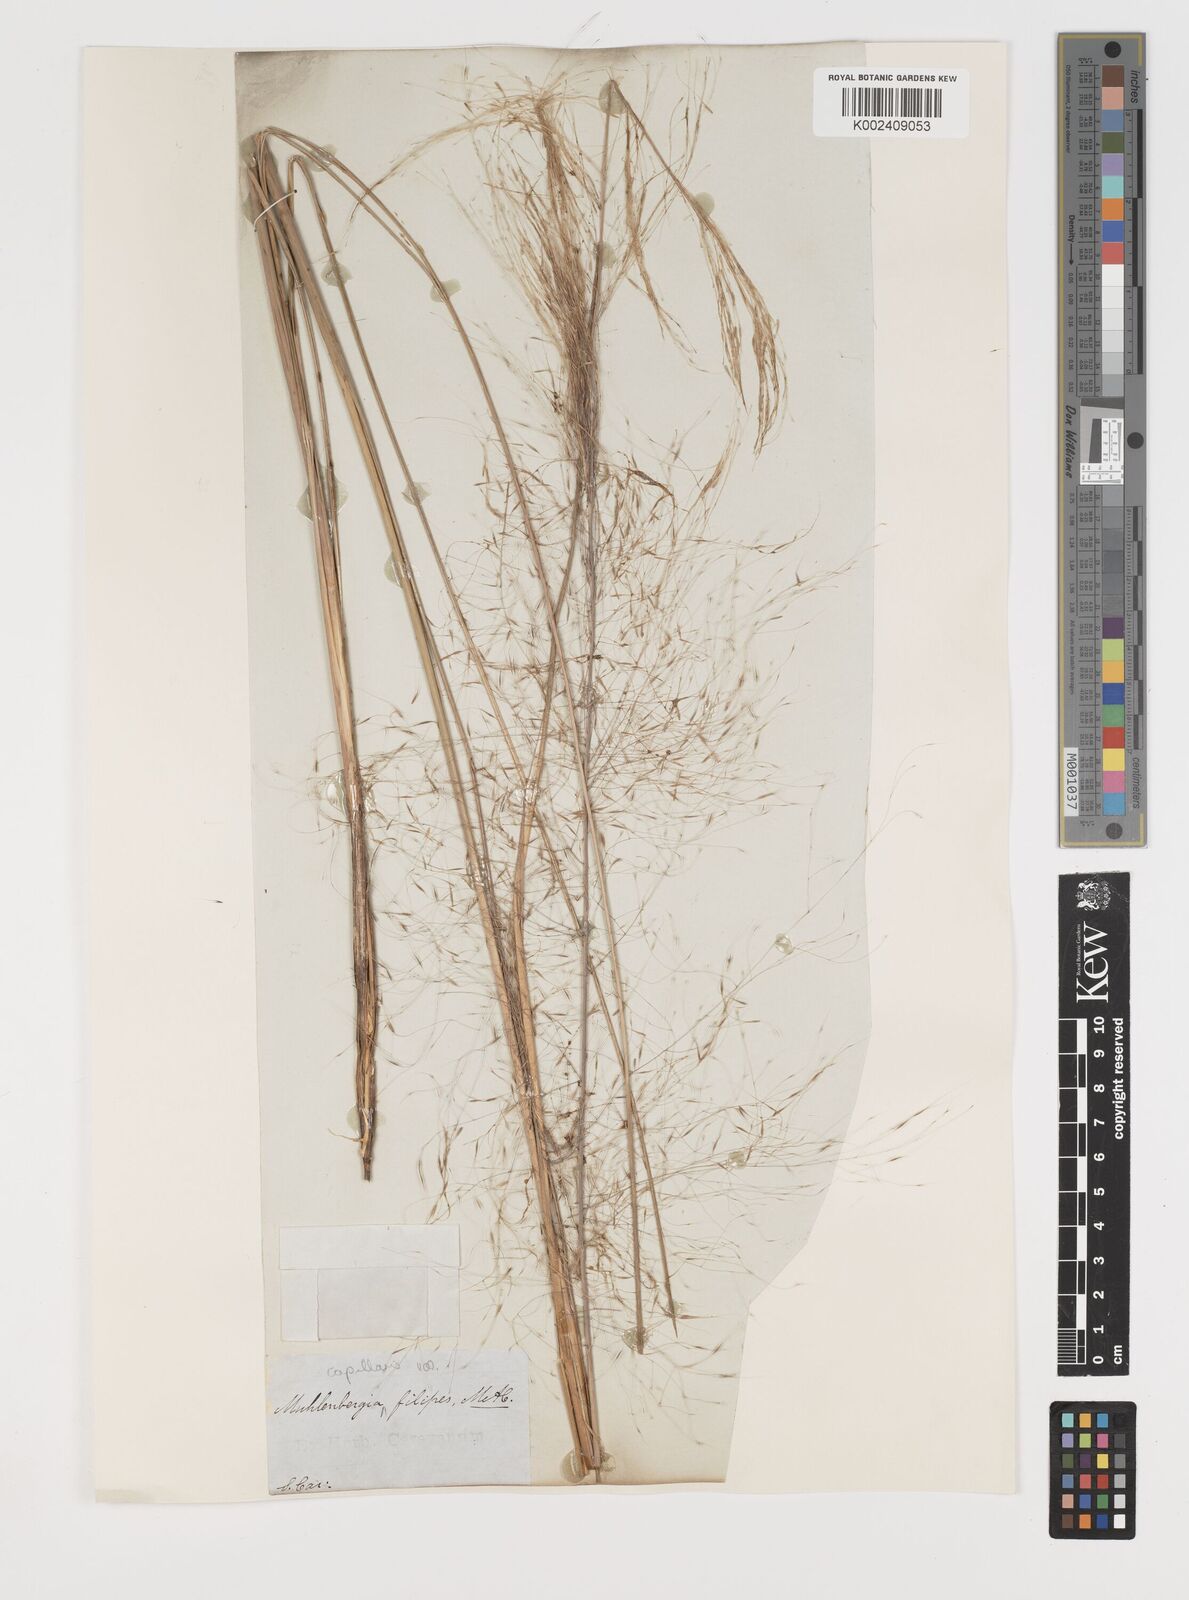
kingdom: Plantae
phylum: Tracheophyta
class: Liliopsida
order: Poales
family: Poaceae
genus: Muhlenbergia
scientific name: Muhlenbergia capillaris
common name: Purple grass
